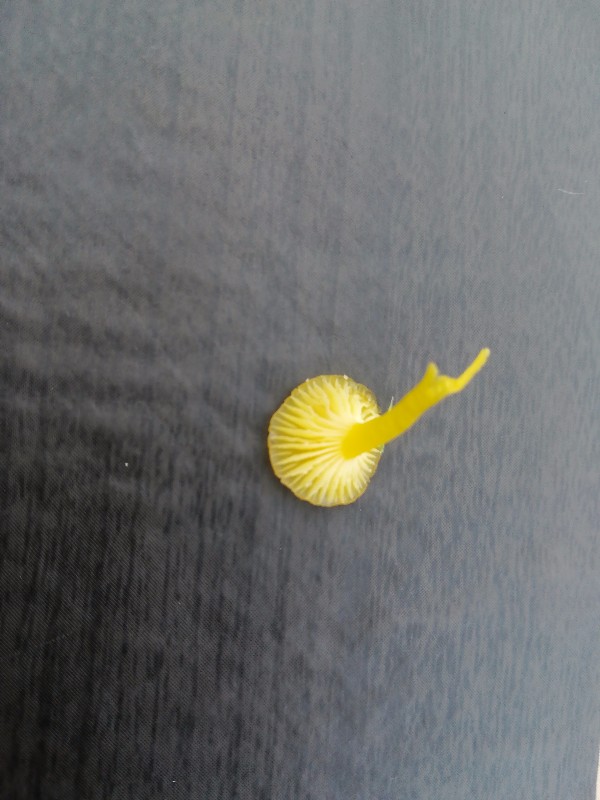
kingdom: Fungi
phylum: Basidiomycota
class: Agaricomycetes
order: Agaricales
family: Hygrophoraceae
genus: Hygrocybe
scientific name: Hygrocybe ceracea
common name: voksgul vokshat
